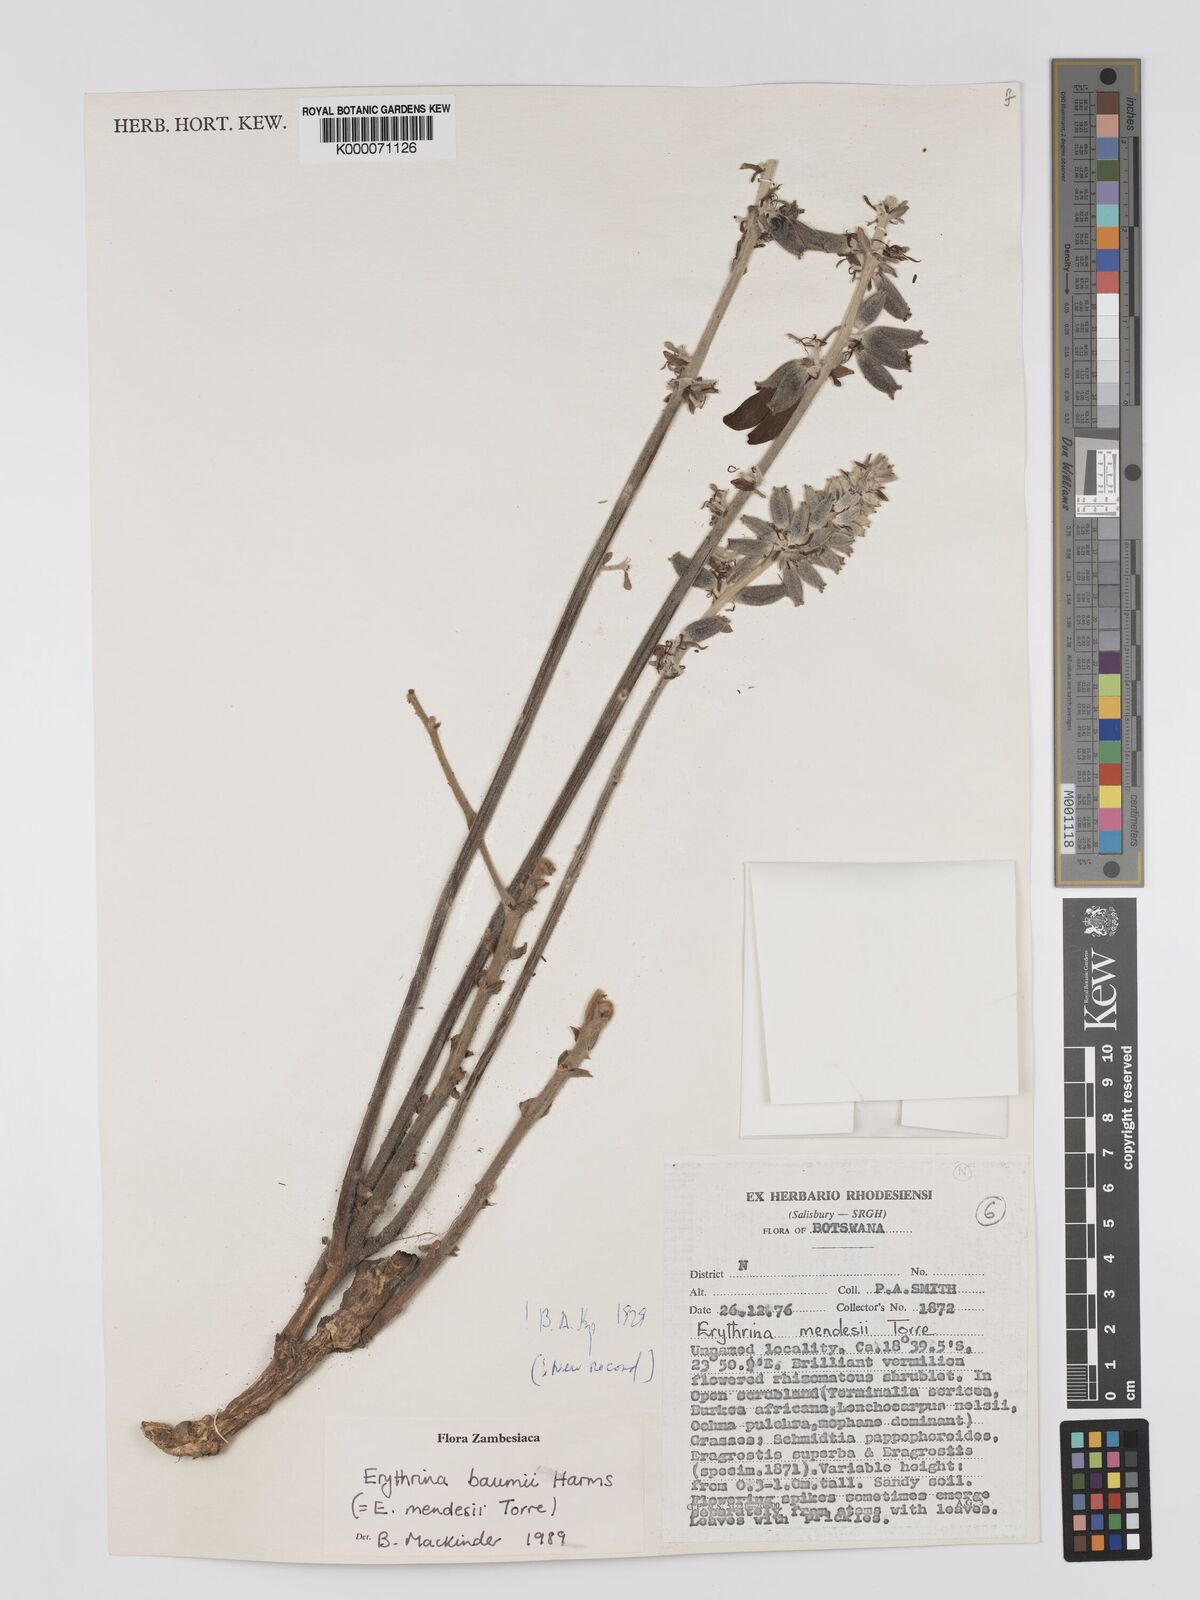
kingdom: Plantae
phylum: Tracheophyta
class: Magnoliopsida
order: Fabales
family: Fabaceae
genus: Erythrina
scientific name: Erythrina baumii
